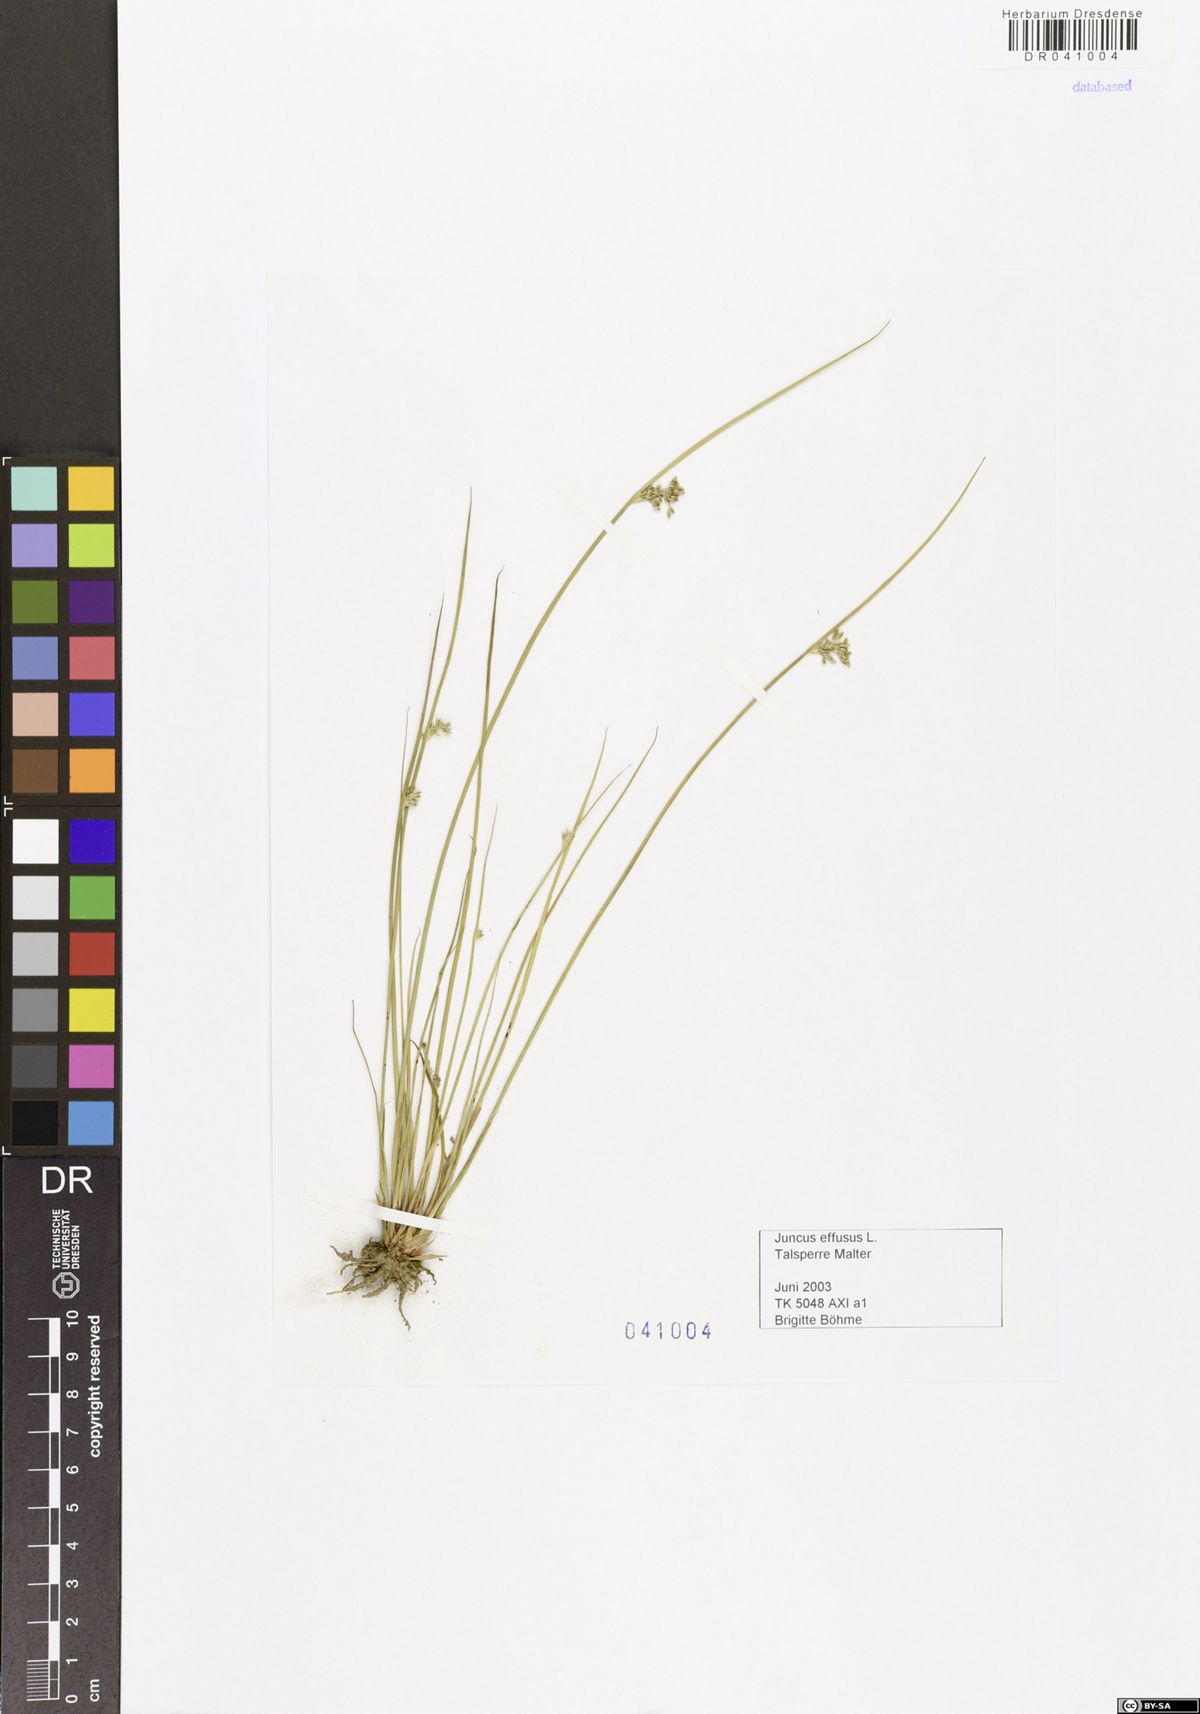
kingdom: Plantae
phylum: Tracheophyta
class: Liliopsida
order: Poales
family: Juncaceae
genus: Juncus
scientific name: Juncus effusus
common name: Soft rush
